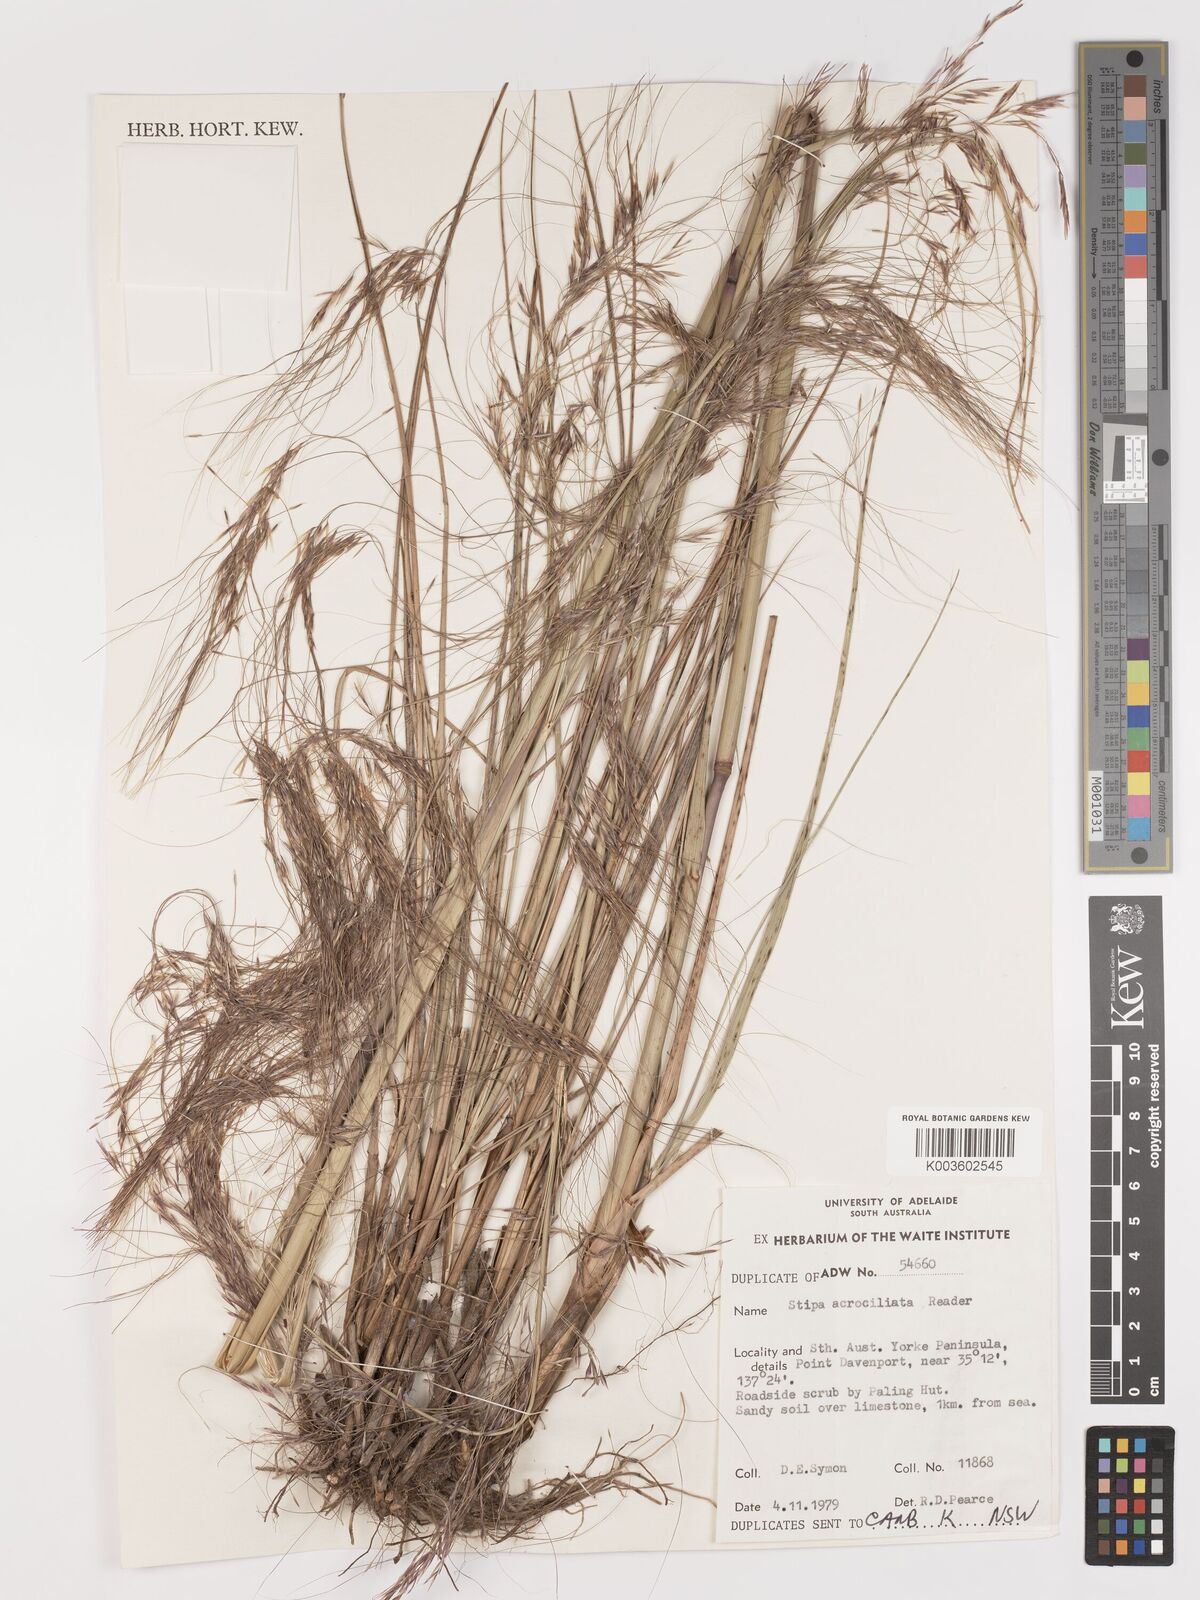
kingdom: Plantae
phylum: Tracheophyta
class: Liliopsida
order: Poales
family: Poaceae
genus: Austrostipa
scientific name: Austrostipa acrociliata
